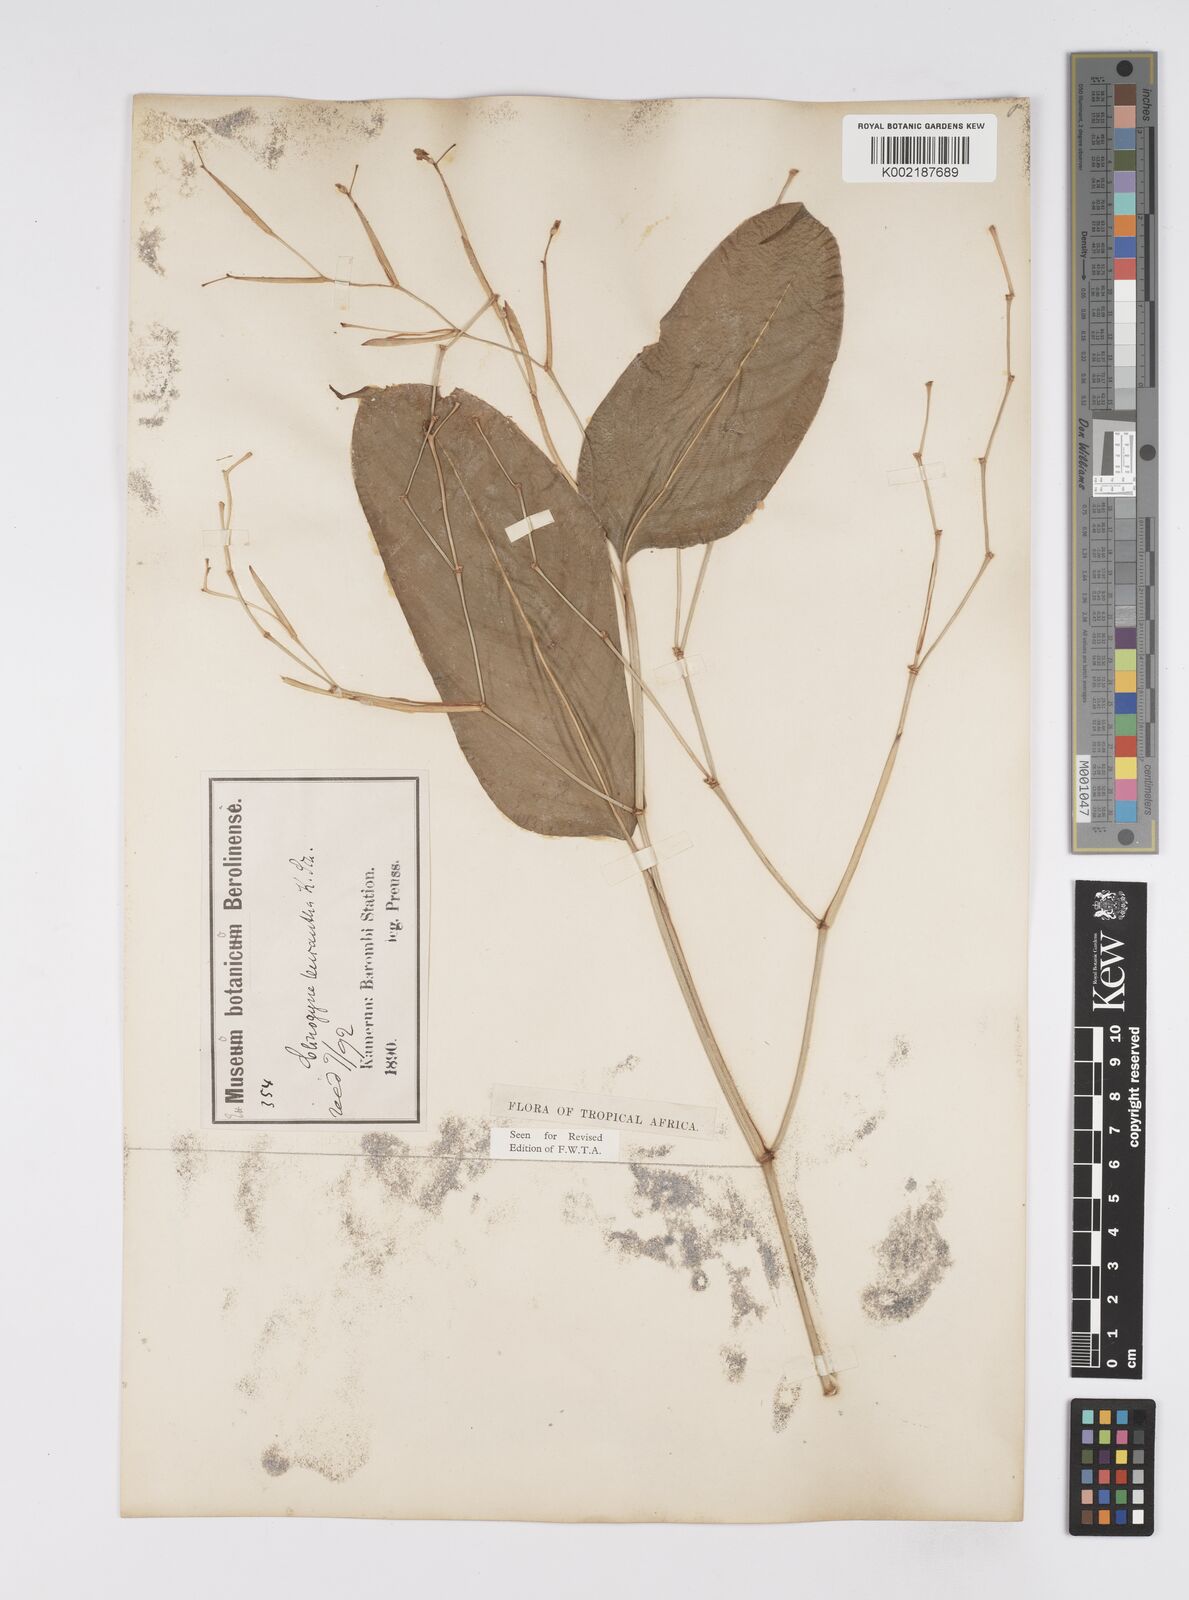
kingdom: Plantae
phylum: Tracheophyta
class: Liliopsida
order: Zingiberales
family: Marantaceae
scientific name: Marantaceae
